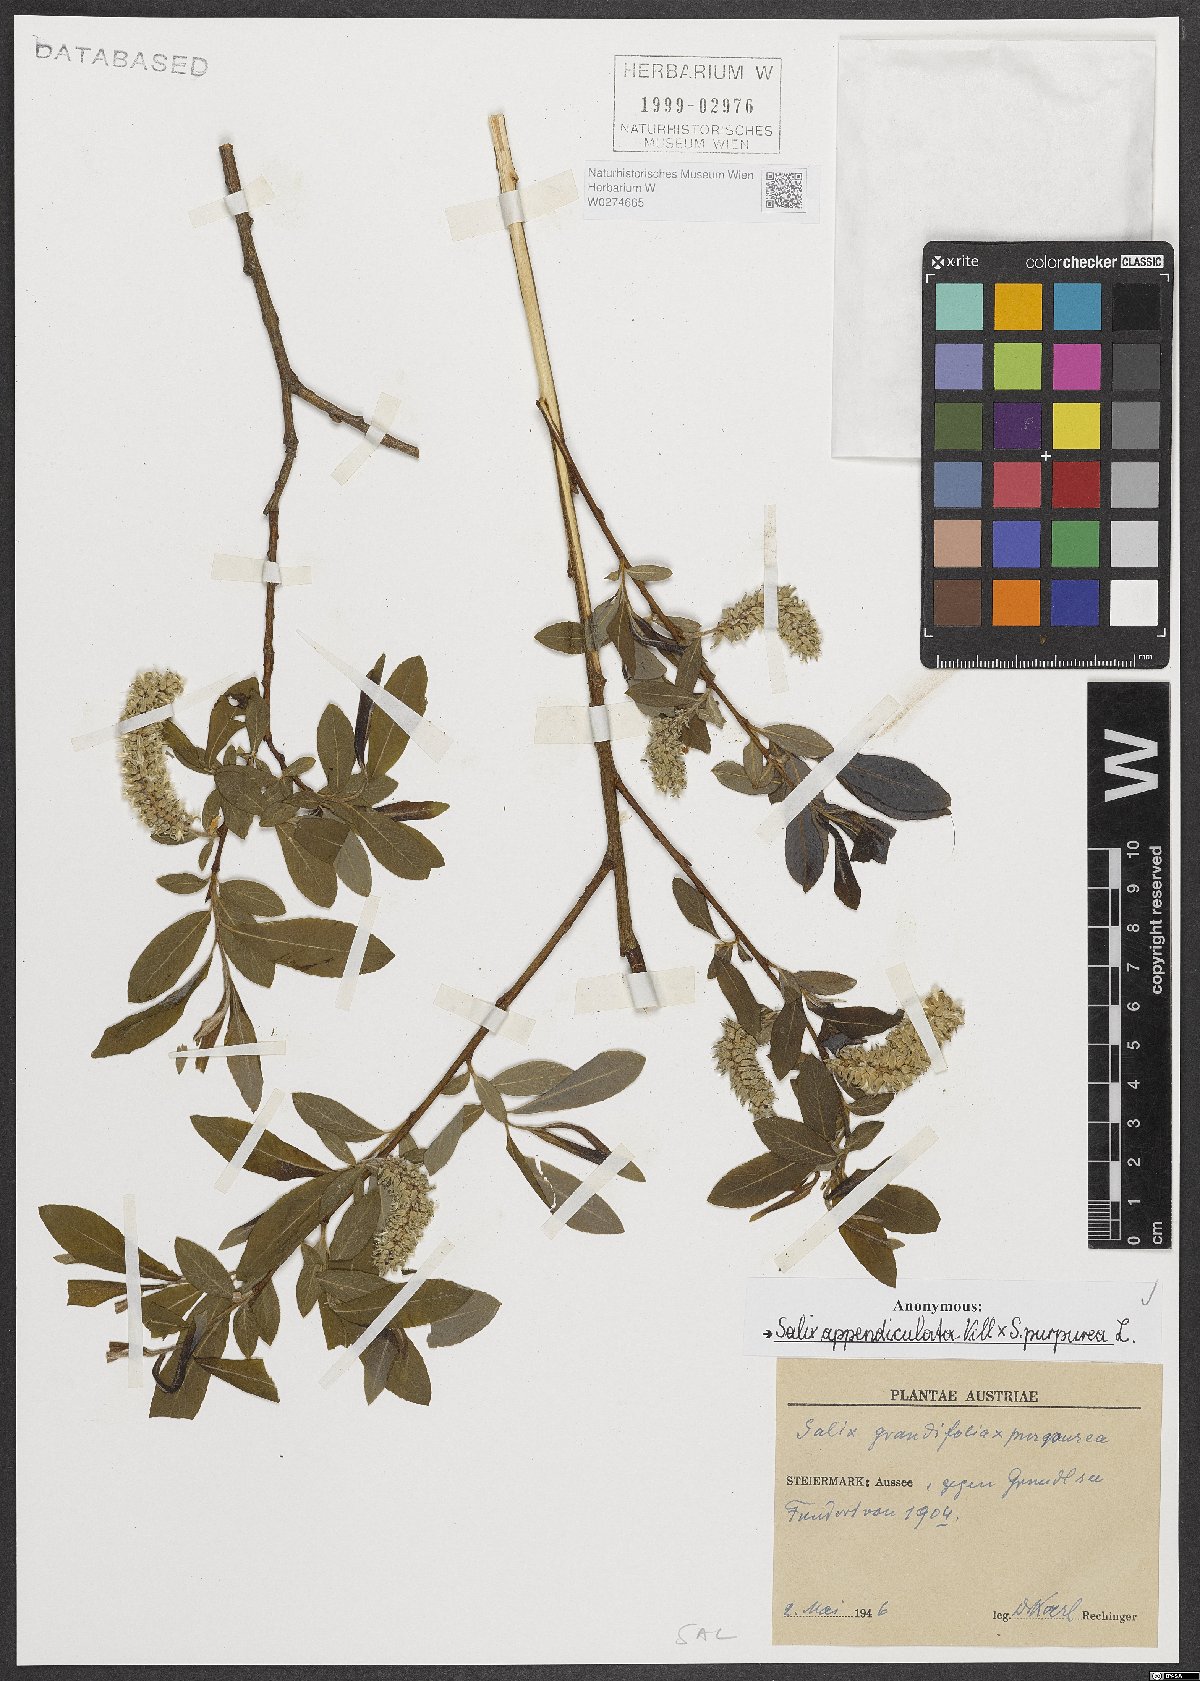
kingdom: Plantae
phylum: Tracheophyta
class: Magnoliopsida
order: Malpighiales
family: Salicaceae
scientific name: Salicaceae
